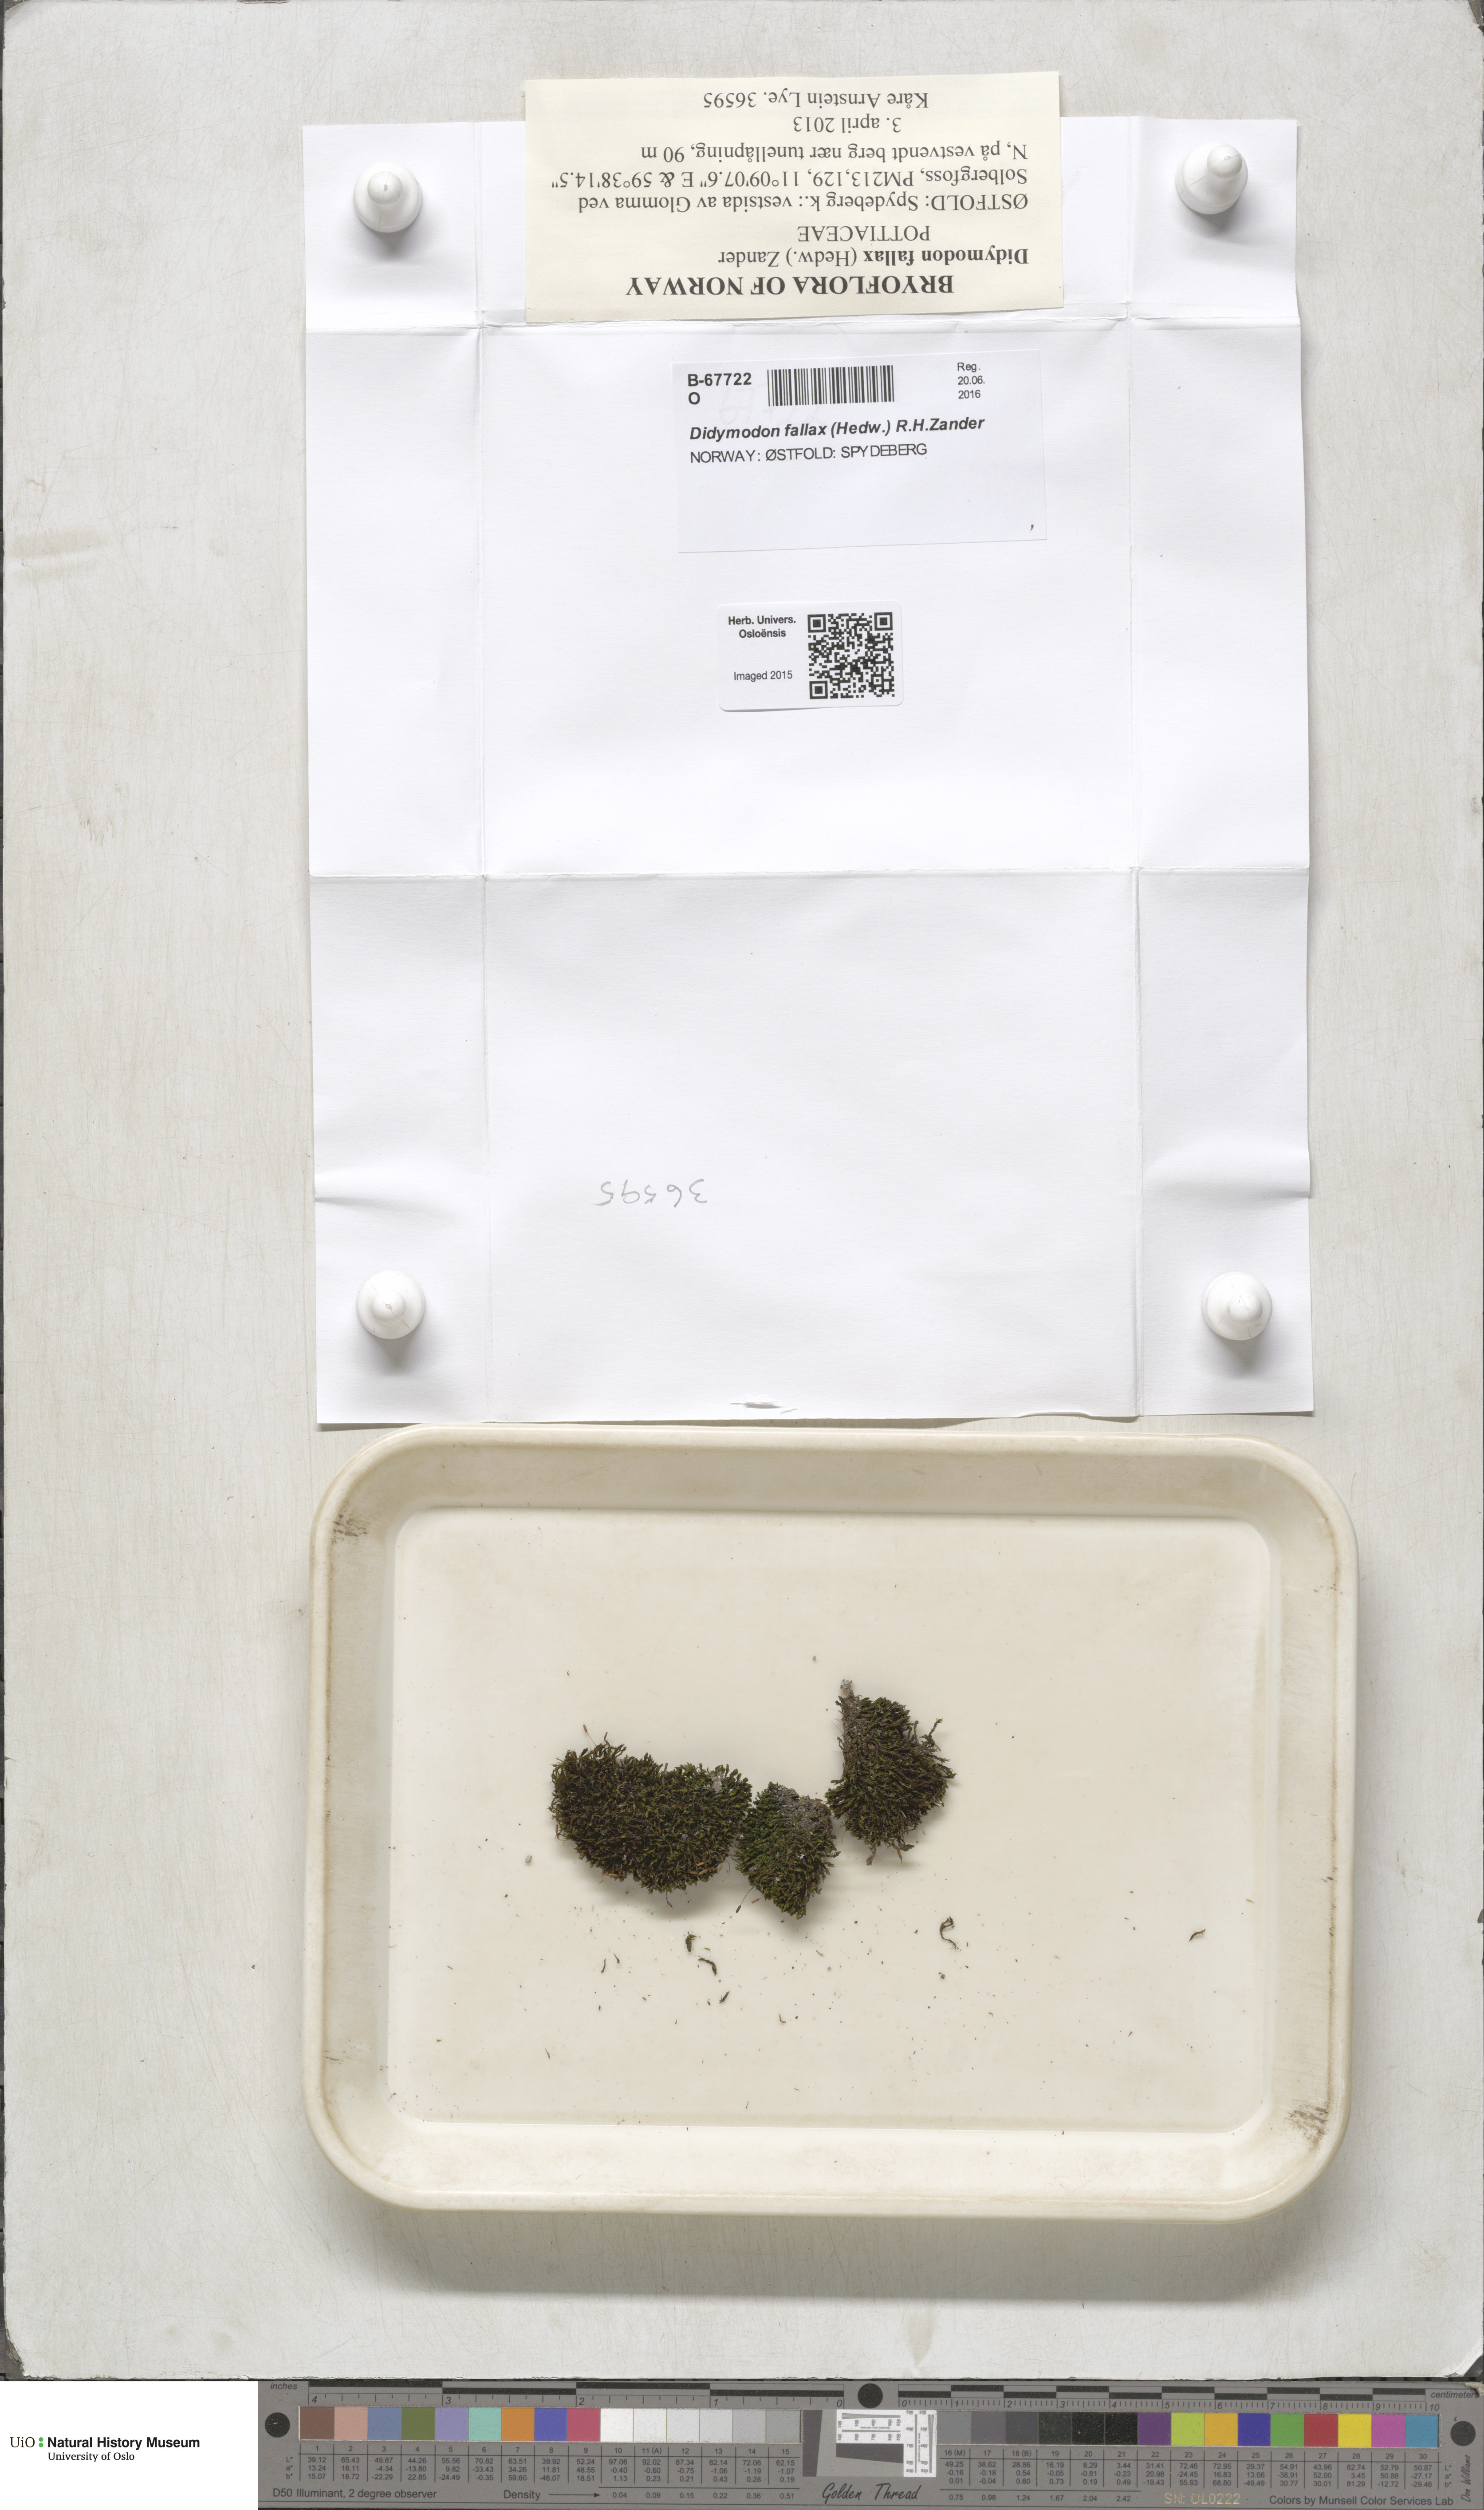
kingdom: Plantae
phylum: Bryophyta
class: Bryopsida
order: Pottiales
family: Pottiaceae
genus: Geheebia
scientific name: Geheebia fallax
